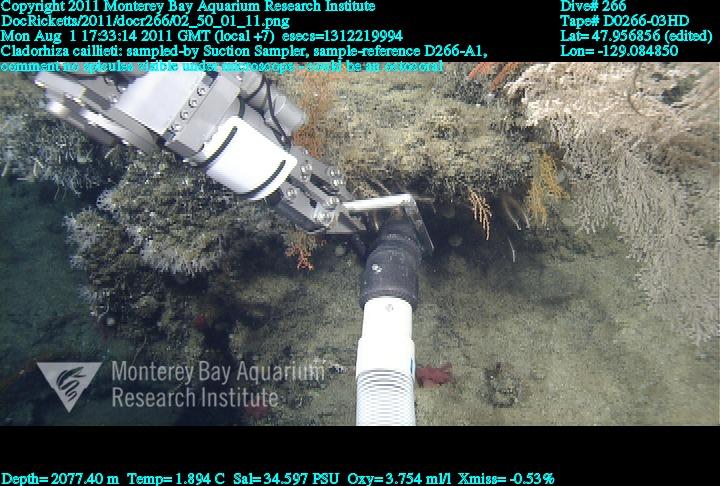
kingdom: Animalia
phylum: Porifera
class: Demospongiae
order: Poecilosclerida
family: Cladorhizidae
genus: Nullarbora
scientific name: Nullarbora caillieti
